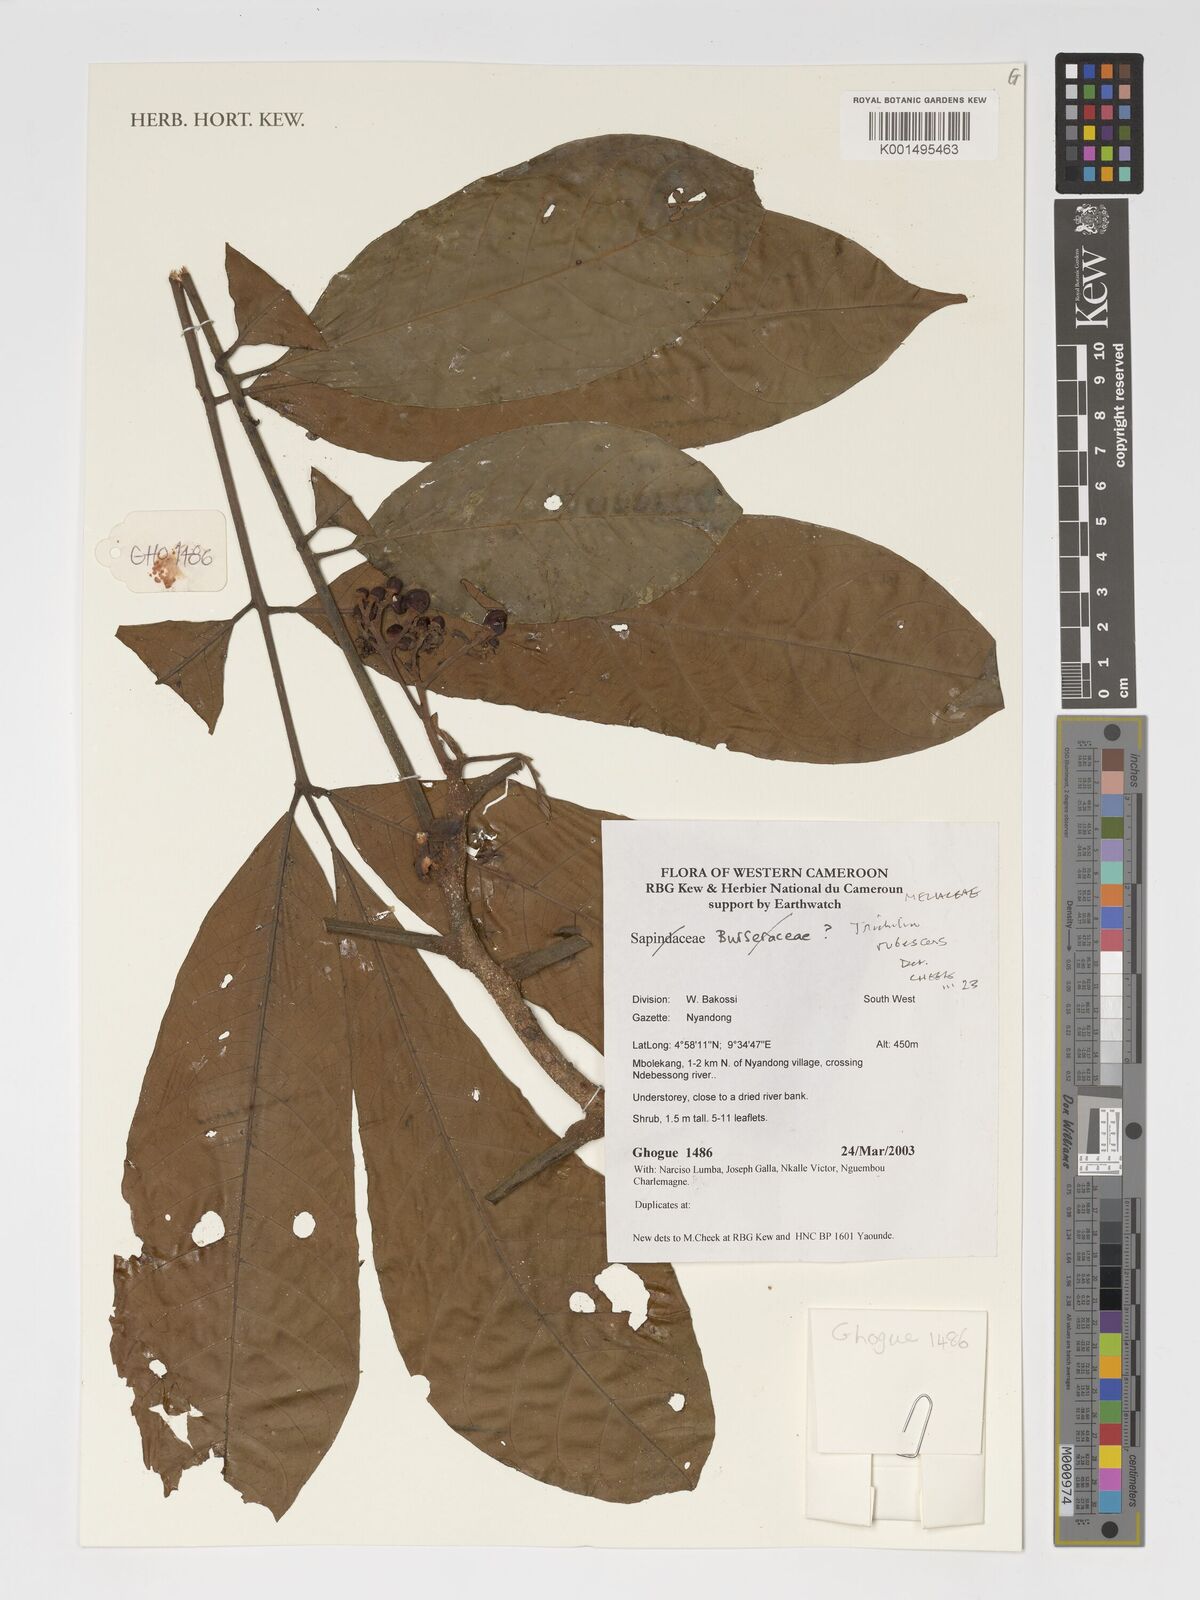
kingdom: Plantae
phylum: Tracheophyta
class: Magnoliopsida
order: Sapindales
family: Meliaceae
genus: Trichilia
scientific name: Trichilia rubescens
